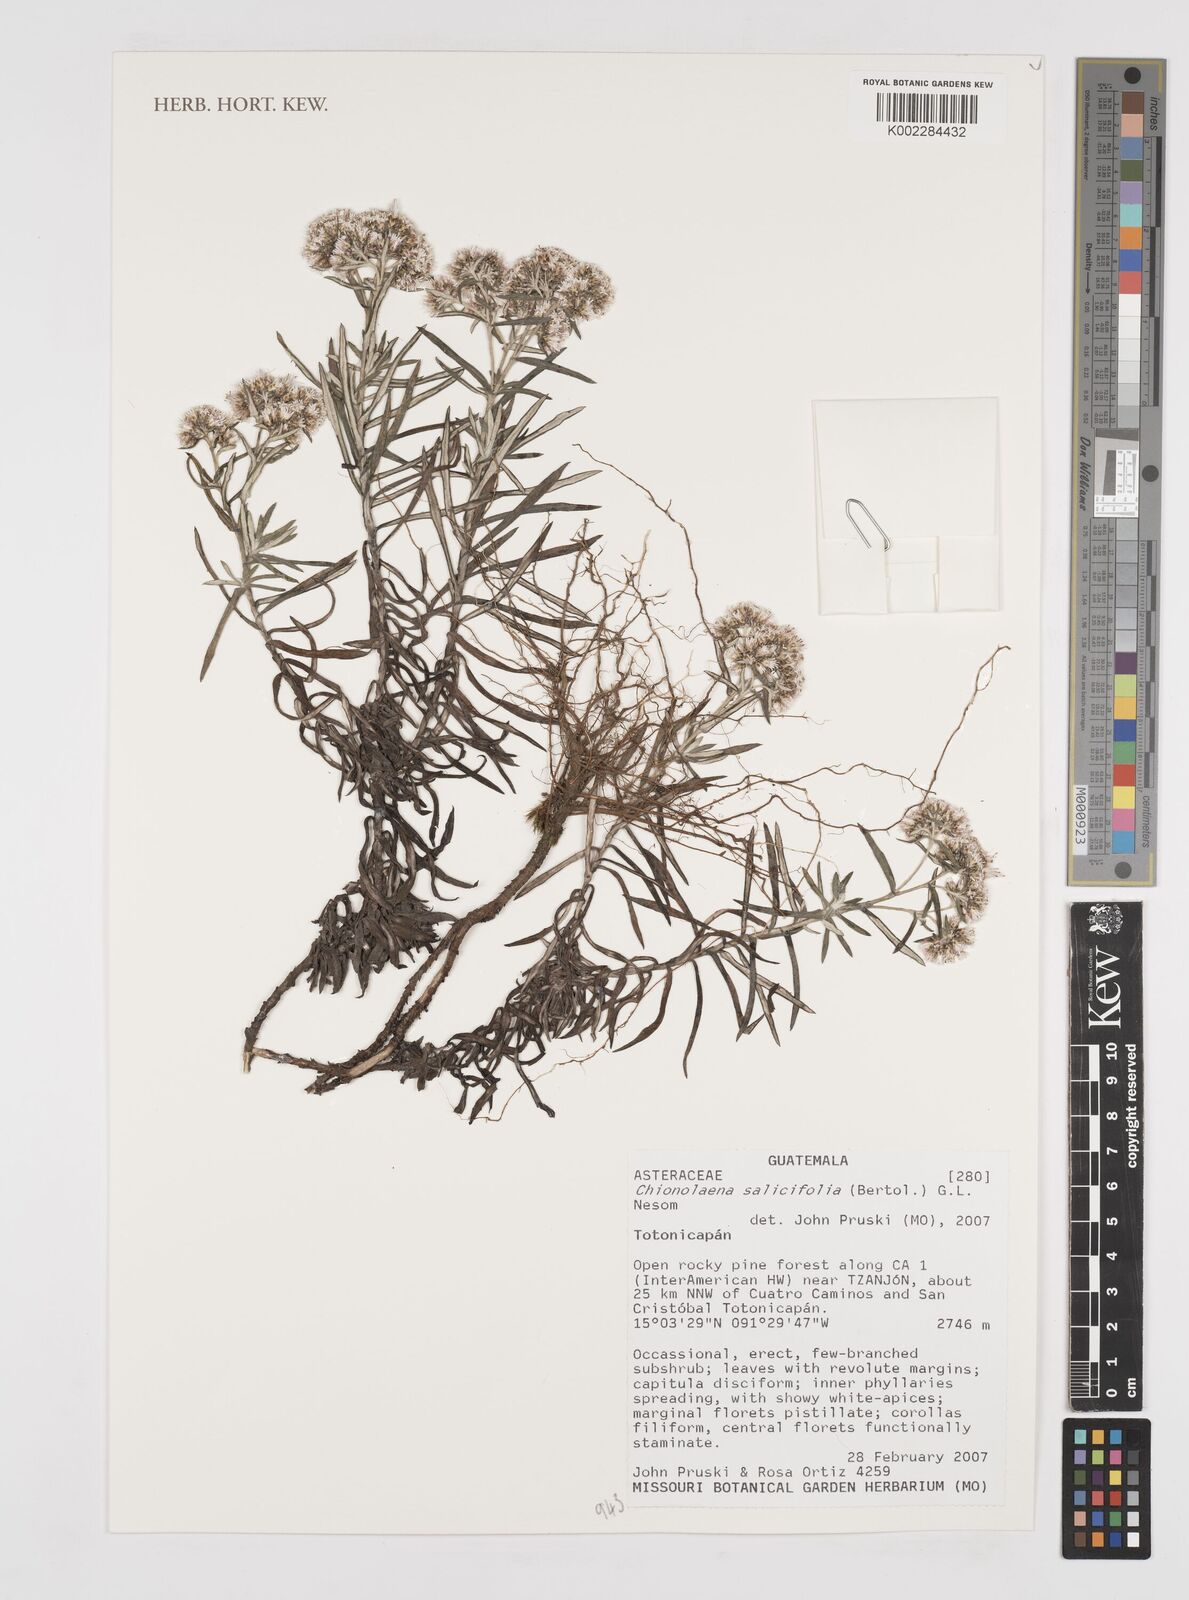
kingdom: Plantae
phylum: Tracheophyta
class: Magnoliopsida
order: Asterales
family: Asteraceae
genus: Gnaphaliothamnus
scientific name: Gnaphaliothamnus salicifolius
